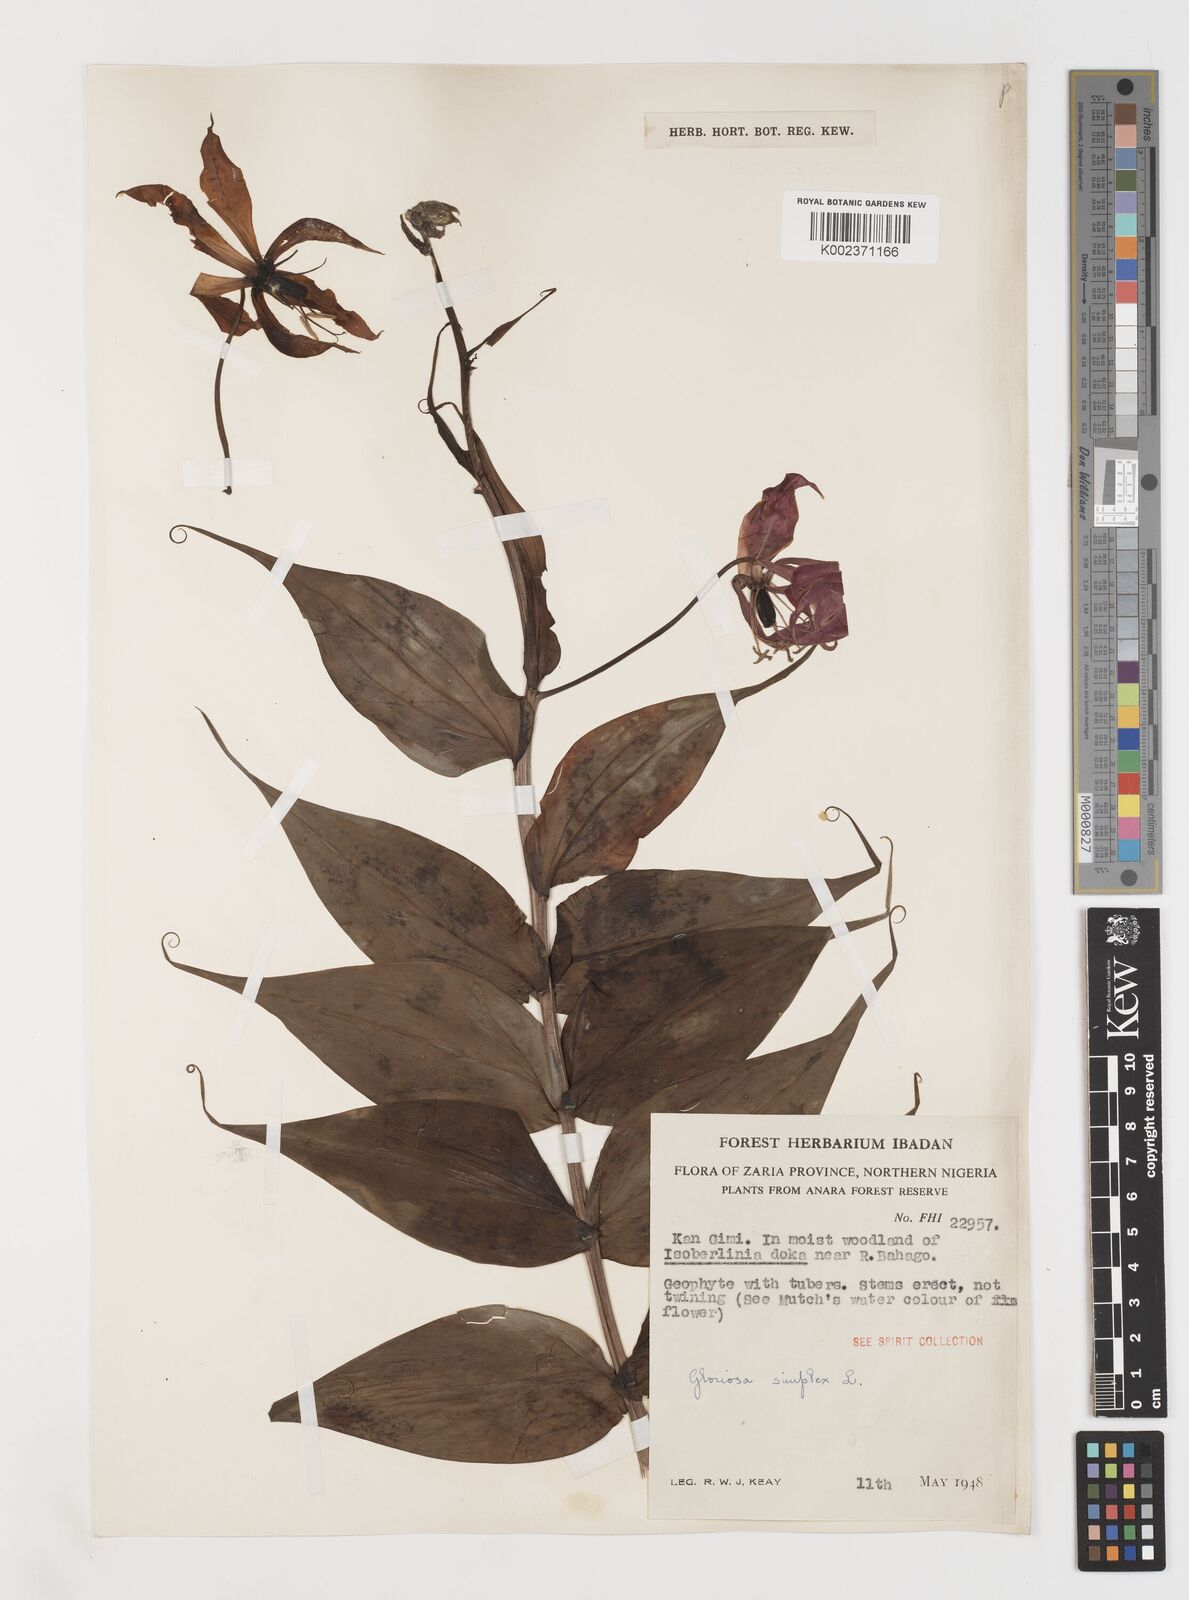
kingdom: Plantae
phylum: Tracheophyta
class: Liliopsida
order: Liliales
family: Colchicaceae
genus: Gloriosa
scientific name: Gloriosa simplex
